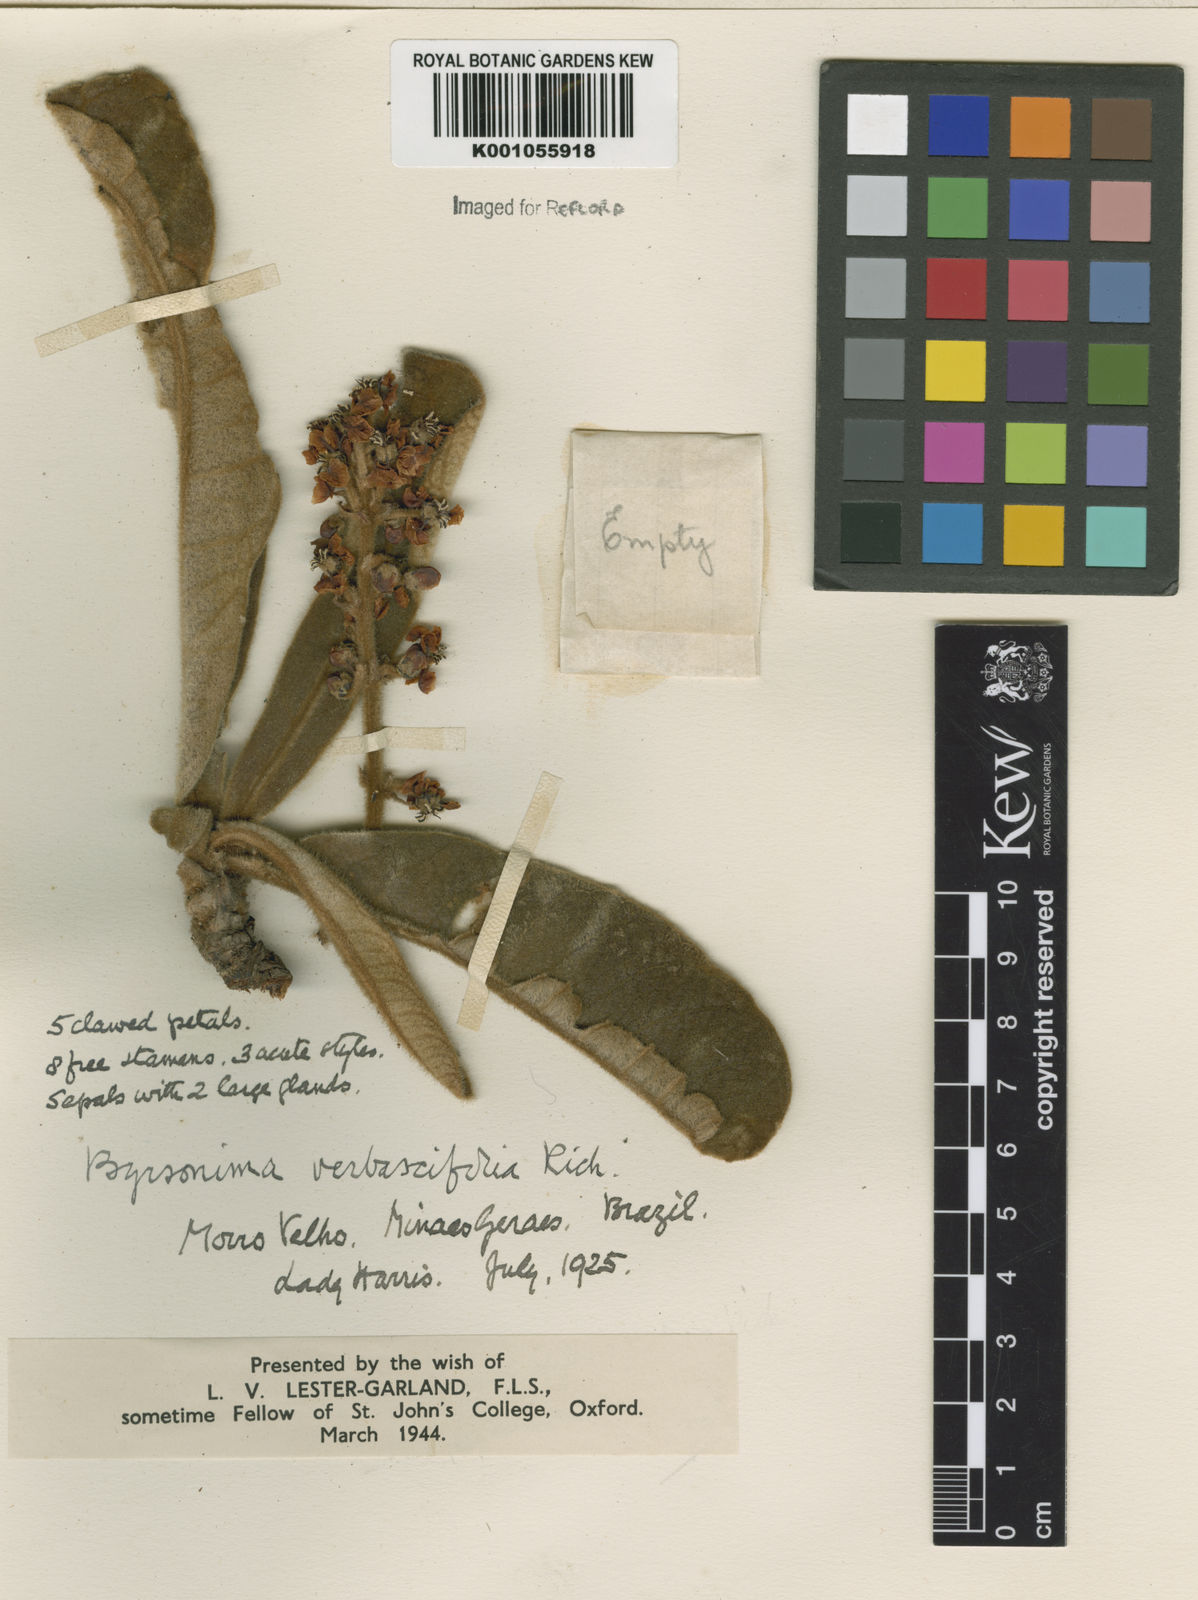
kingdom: Plantae
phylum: Tracheophyta
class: Magnoliopsida
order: Malpighiales
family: Malpighiaceae
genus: Byrsonima
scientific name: Byrsonima verbascifolia
